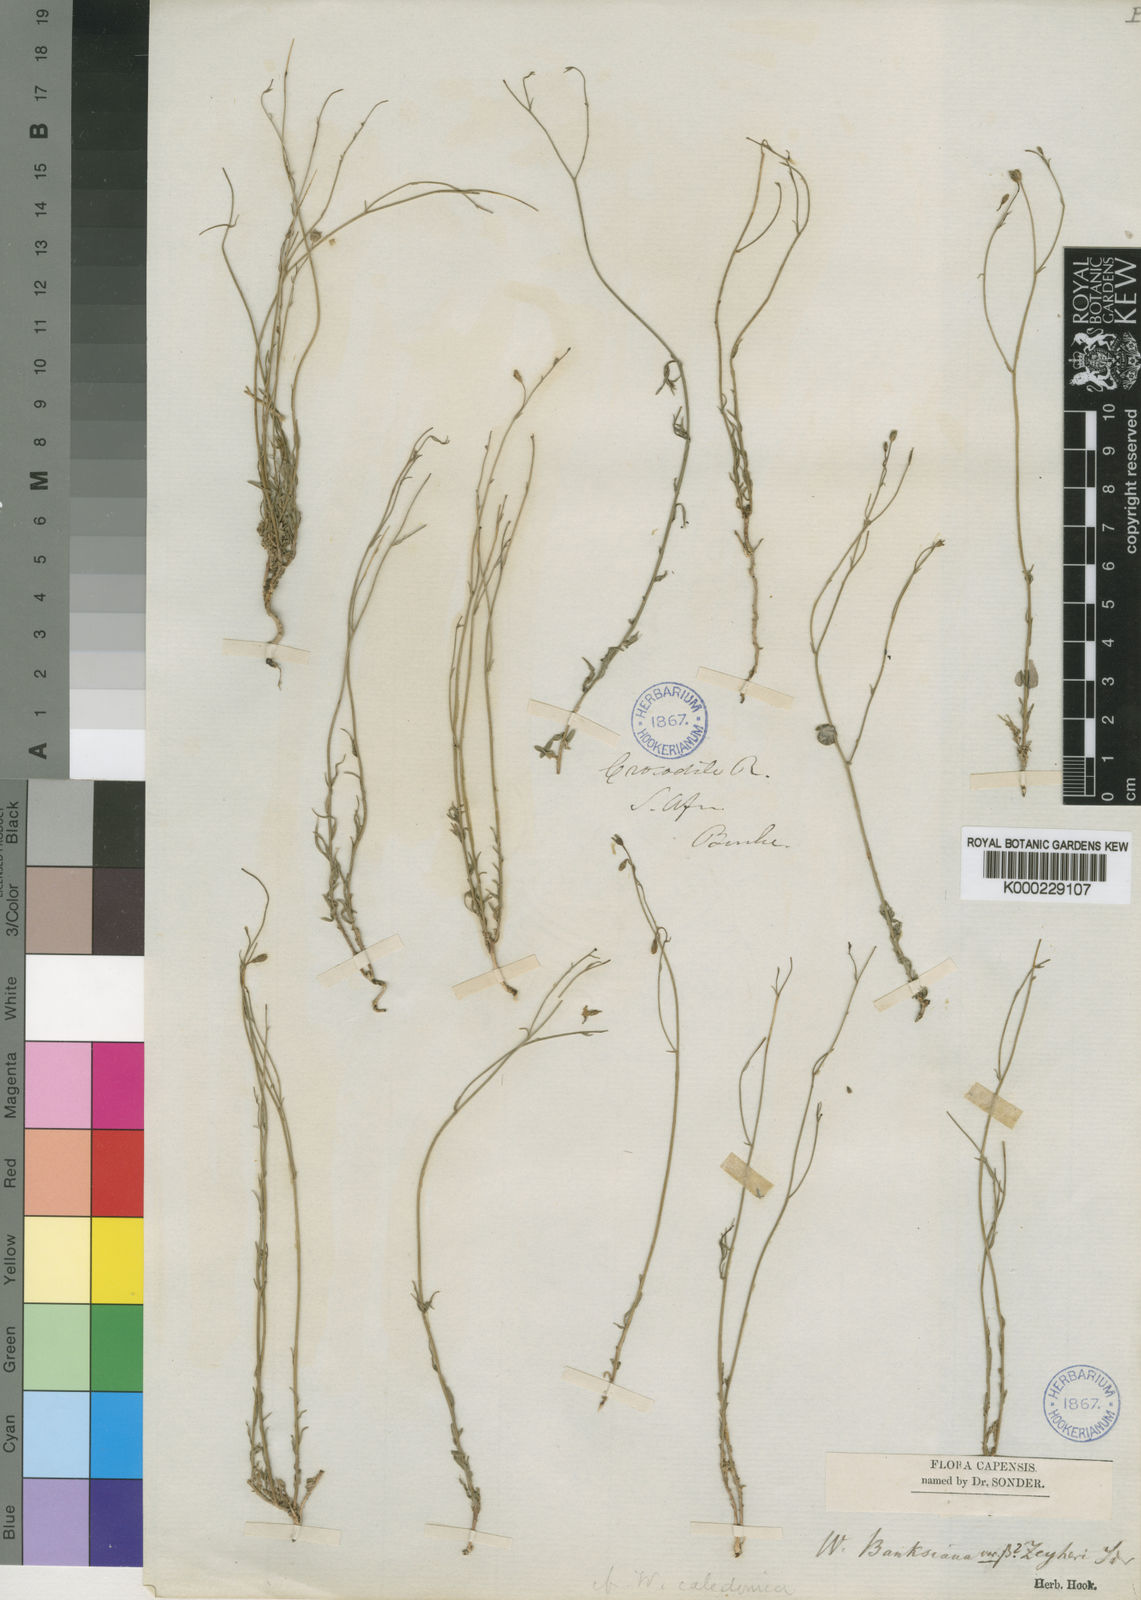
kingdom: Plantae
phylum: Tracheophyta
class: Magnoliopsida
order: Asterales
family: Campanulaceae
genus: Wahlenbergia
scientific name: Wahlenbergia banksiana
